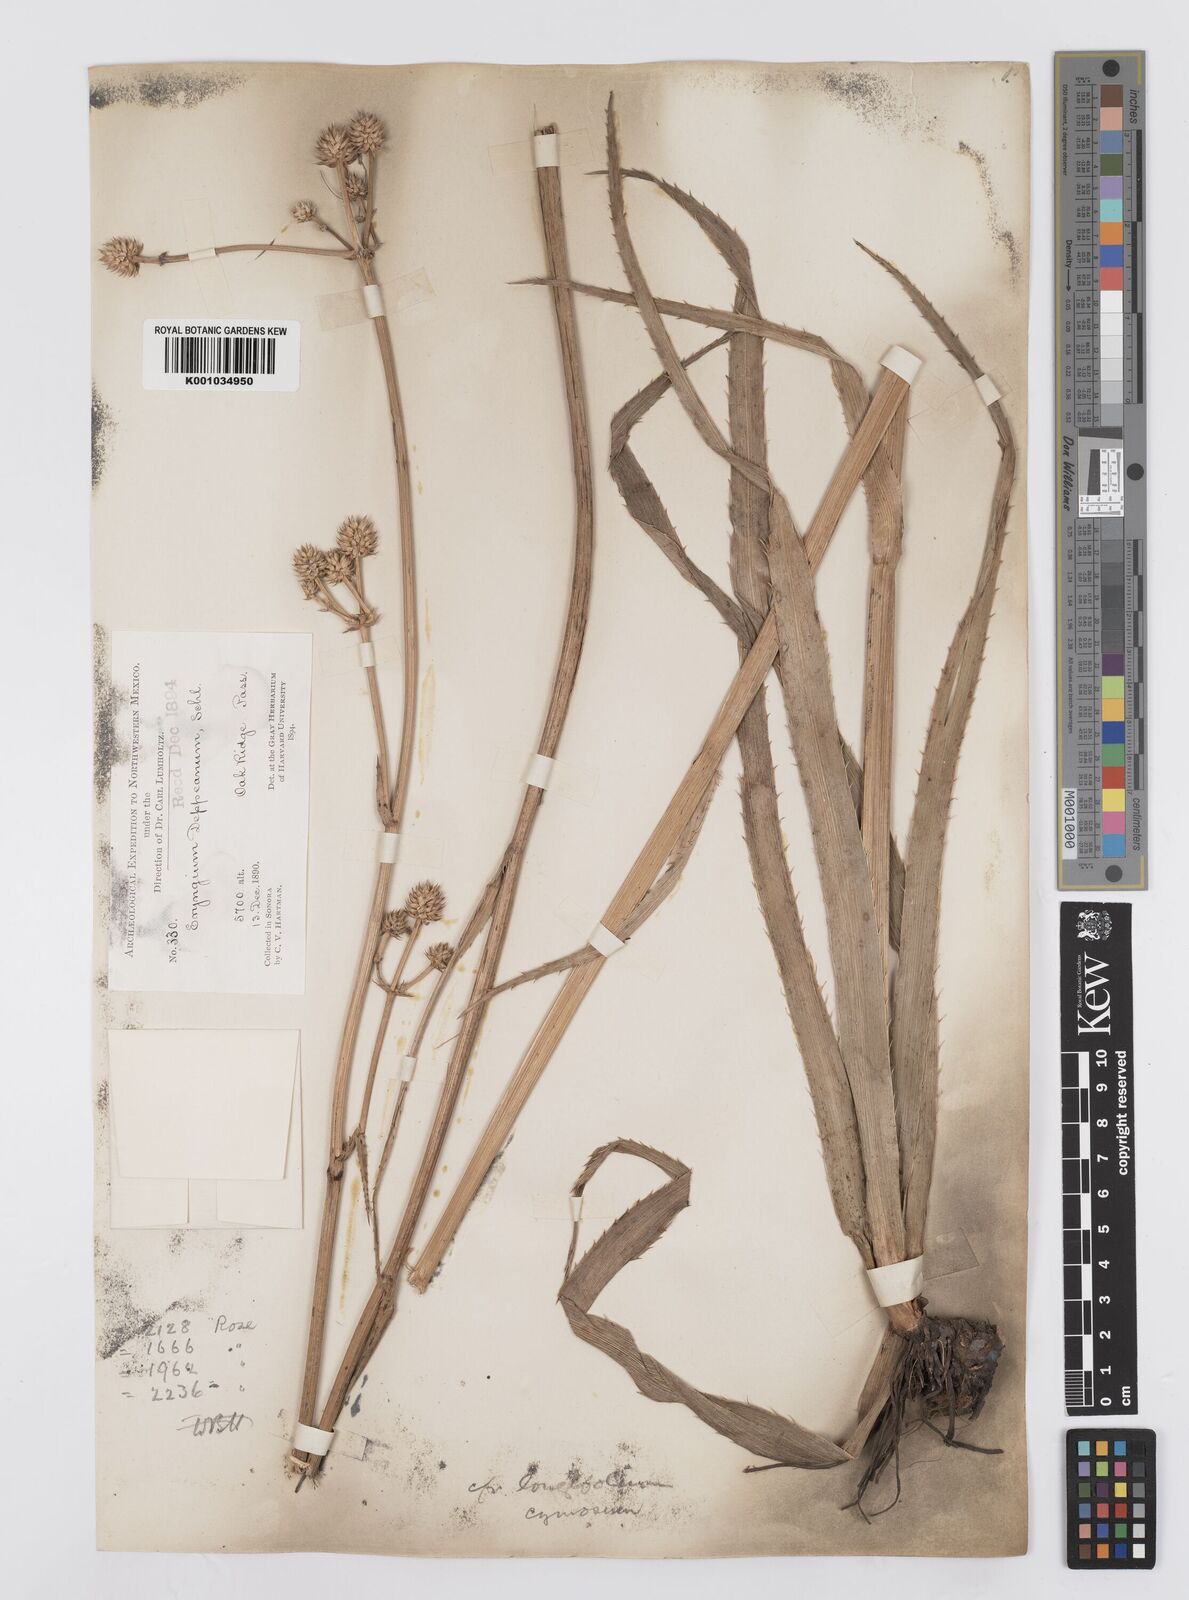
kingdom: Plantae
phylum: Tracheophyta
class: Magnoliopsida
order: Apiales
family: Apiaceae
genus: Eryngium
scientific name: Eryngium longifolium
